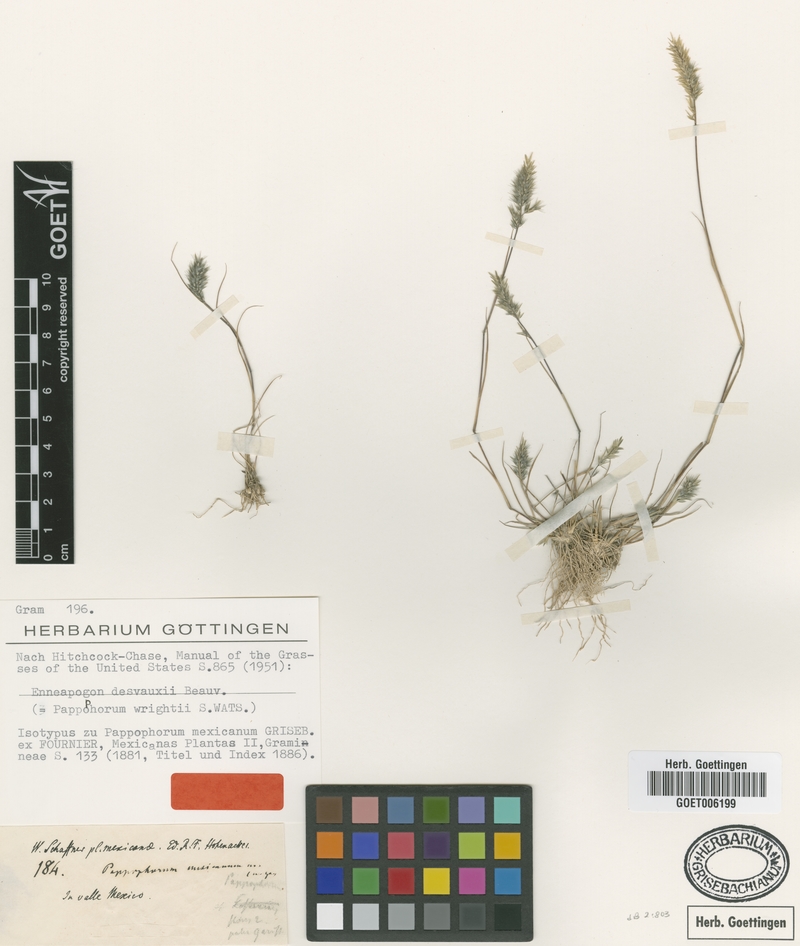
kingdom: Plantae
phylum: Tracheophyta
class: Liliopsida
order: Poales
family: Poaceae
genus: Enneapogon
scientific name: Enneapogon desvauxii
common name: Feather pappus grass
